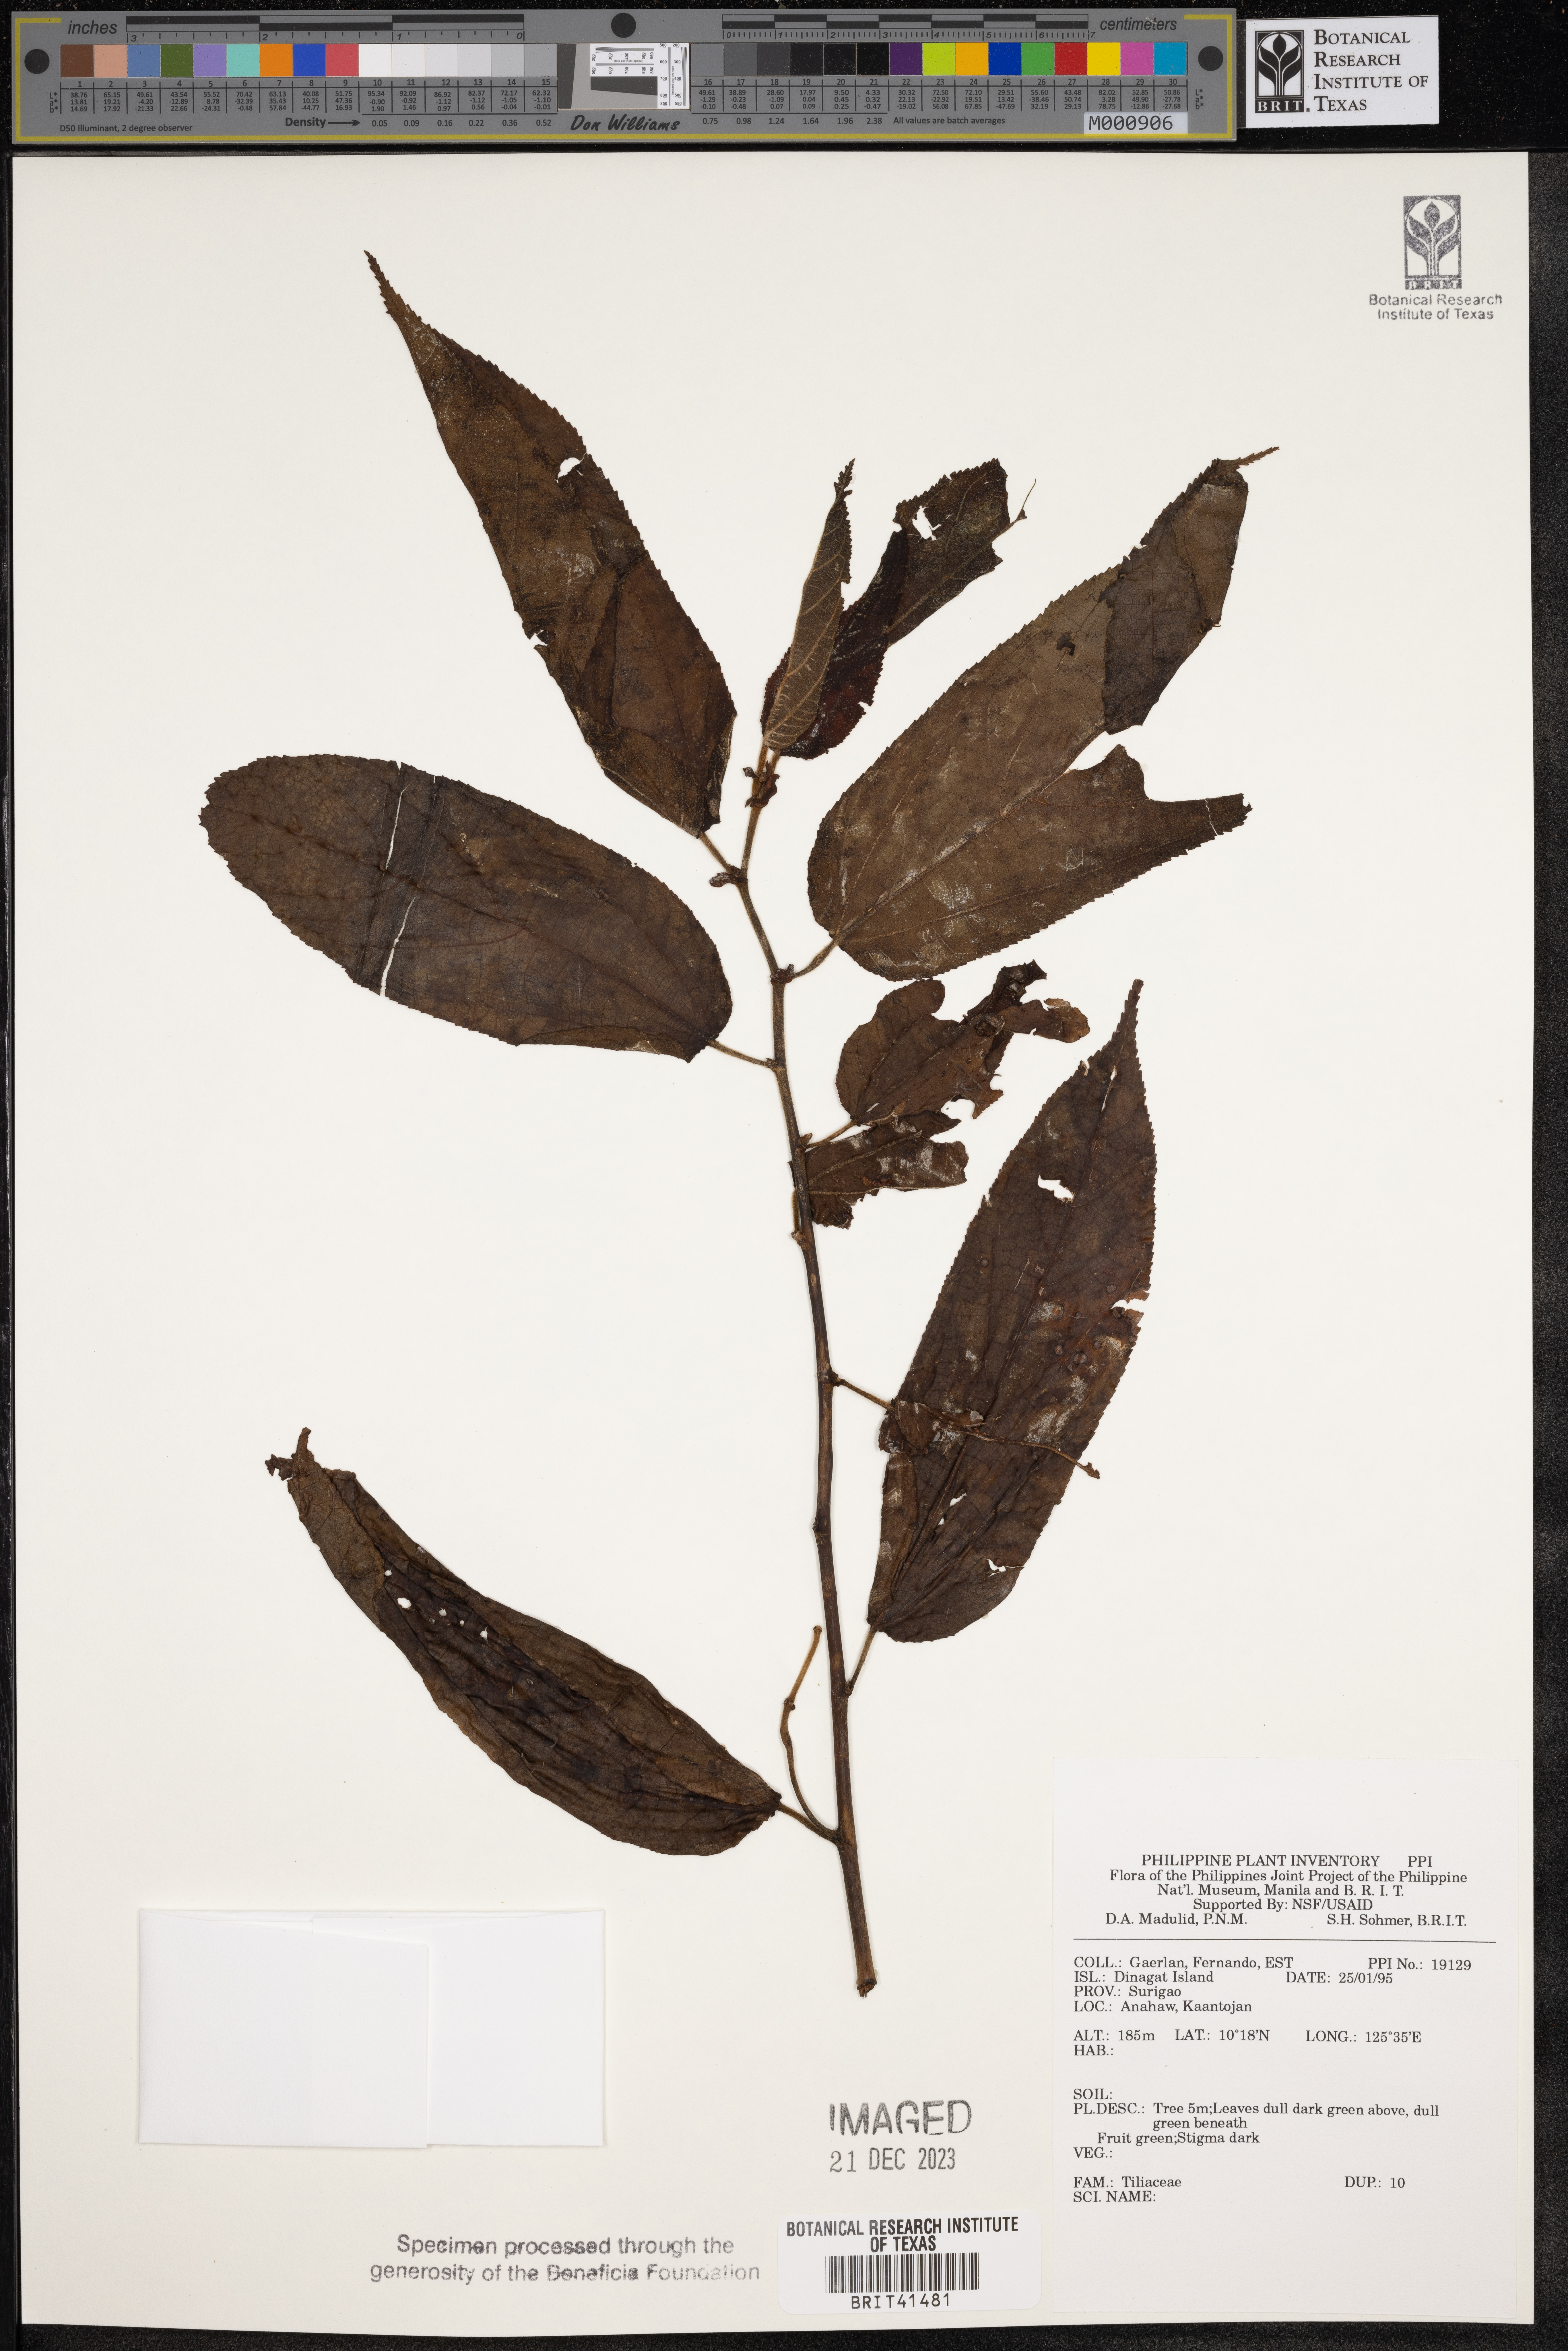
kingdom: Plantae
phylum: Tracheophyta
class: Magnoliopsida
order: Malvales
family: Tiliaceae
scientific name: Tiliaceae
